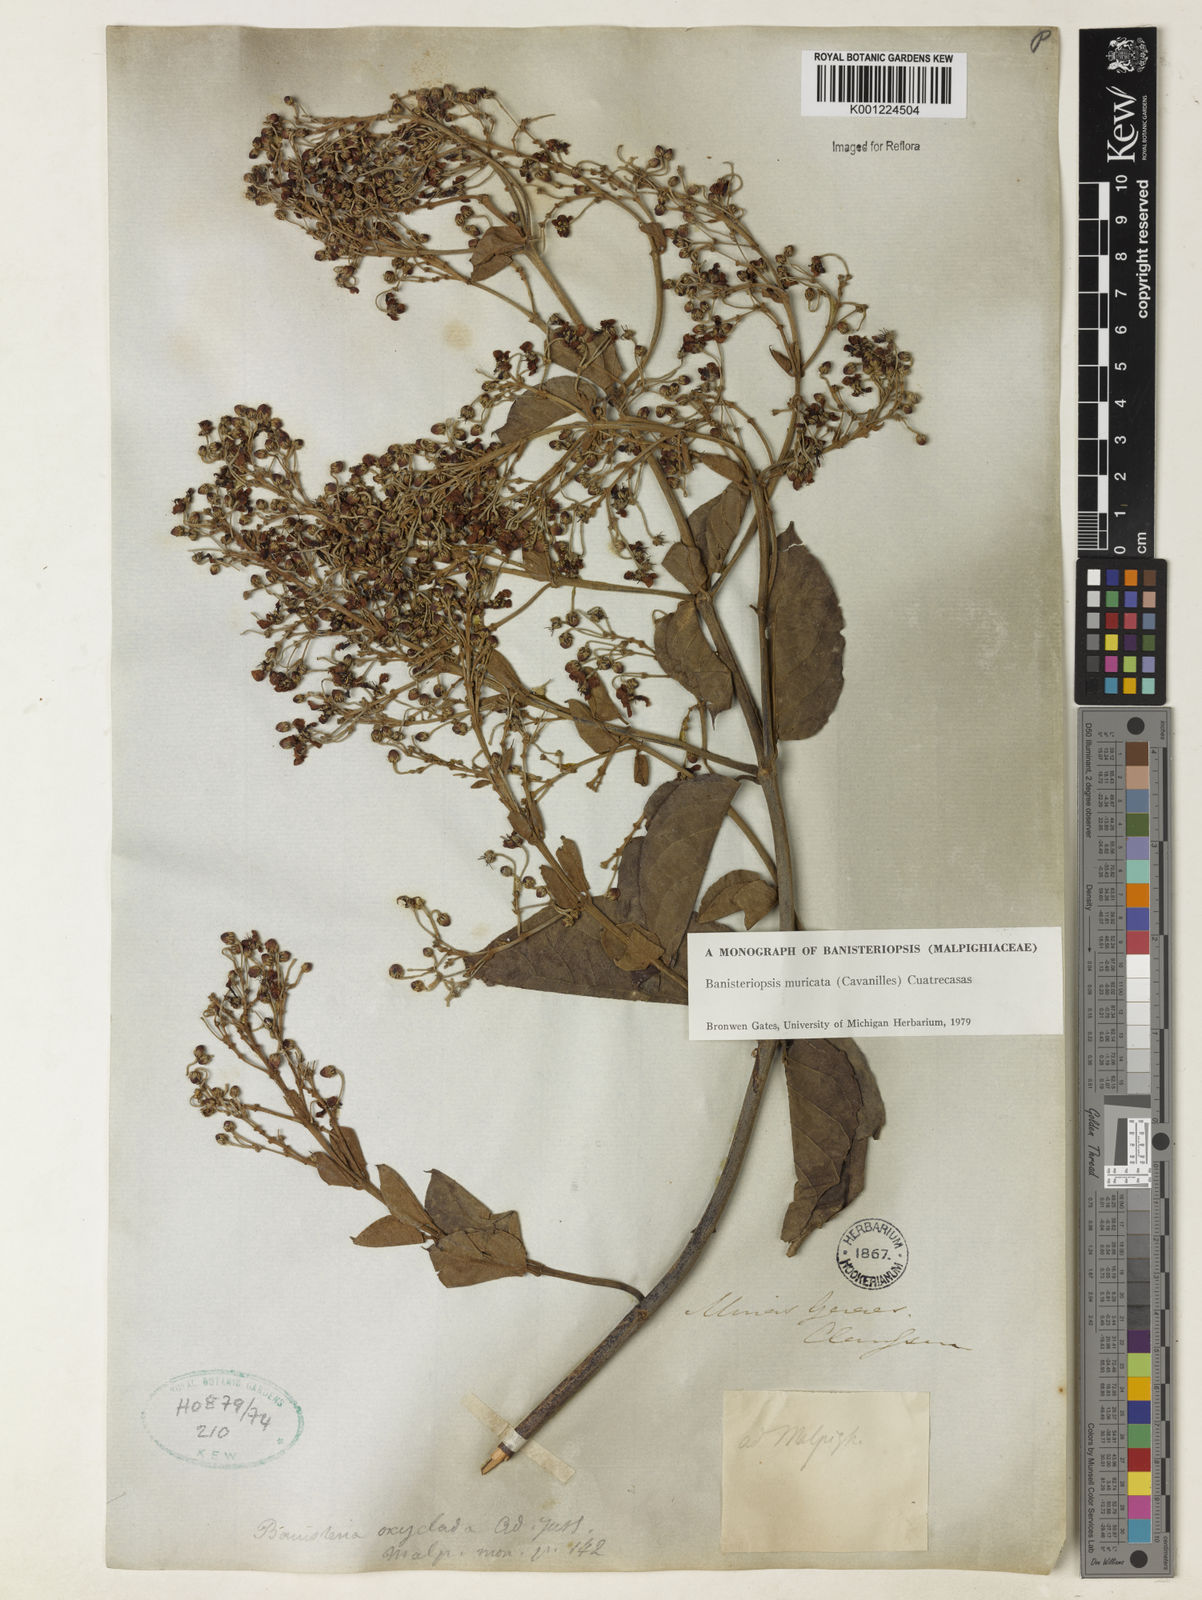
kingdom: Plantae
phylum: Tracheophyta
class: Magnoliopsida
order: Malpighiales
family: Malpighiaceae
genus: Banisteriopsis
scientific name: Banisteriopsis muricata
